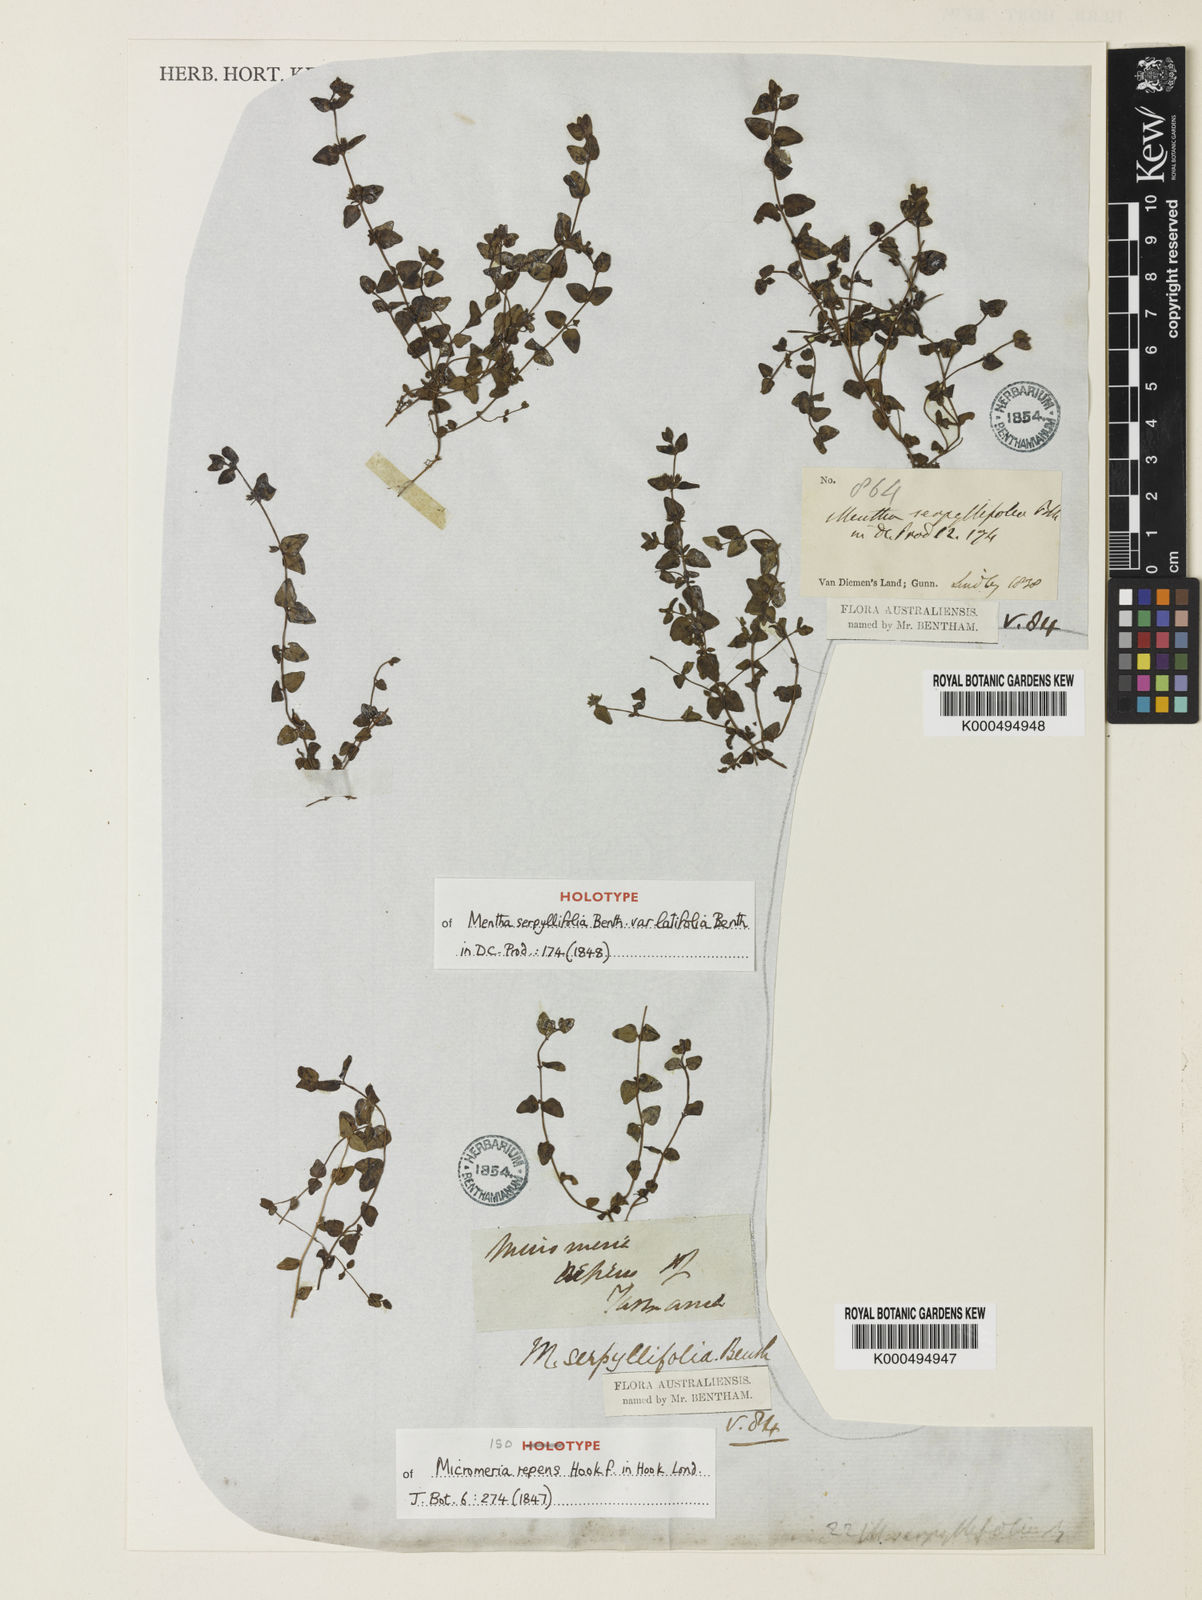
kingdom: Plantae
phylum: Tracheophyta
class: Magnoliopsida
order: Lamiales
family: Lamiaceae
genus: Mentha
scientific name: Mentha diemenica
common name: Wild mint
